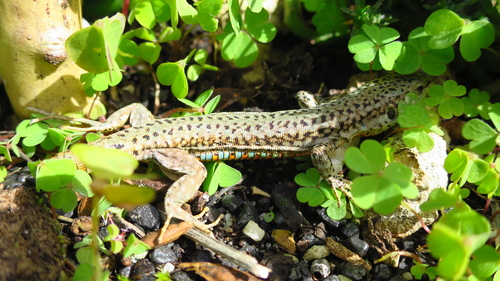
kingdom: Animalia
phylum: Chordata
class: Squamata
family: Lacertidae
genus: Podarcis
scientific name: Podarcis virescens
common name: Geniez’s wall lizard
